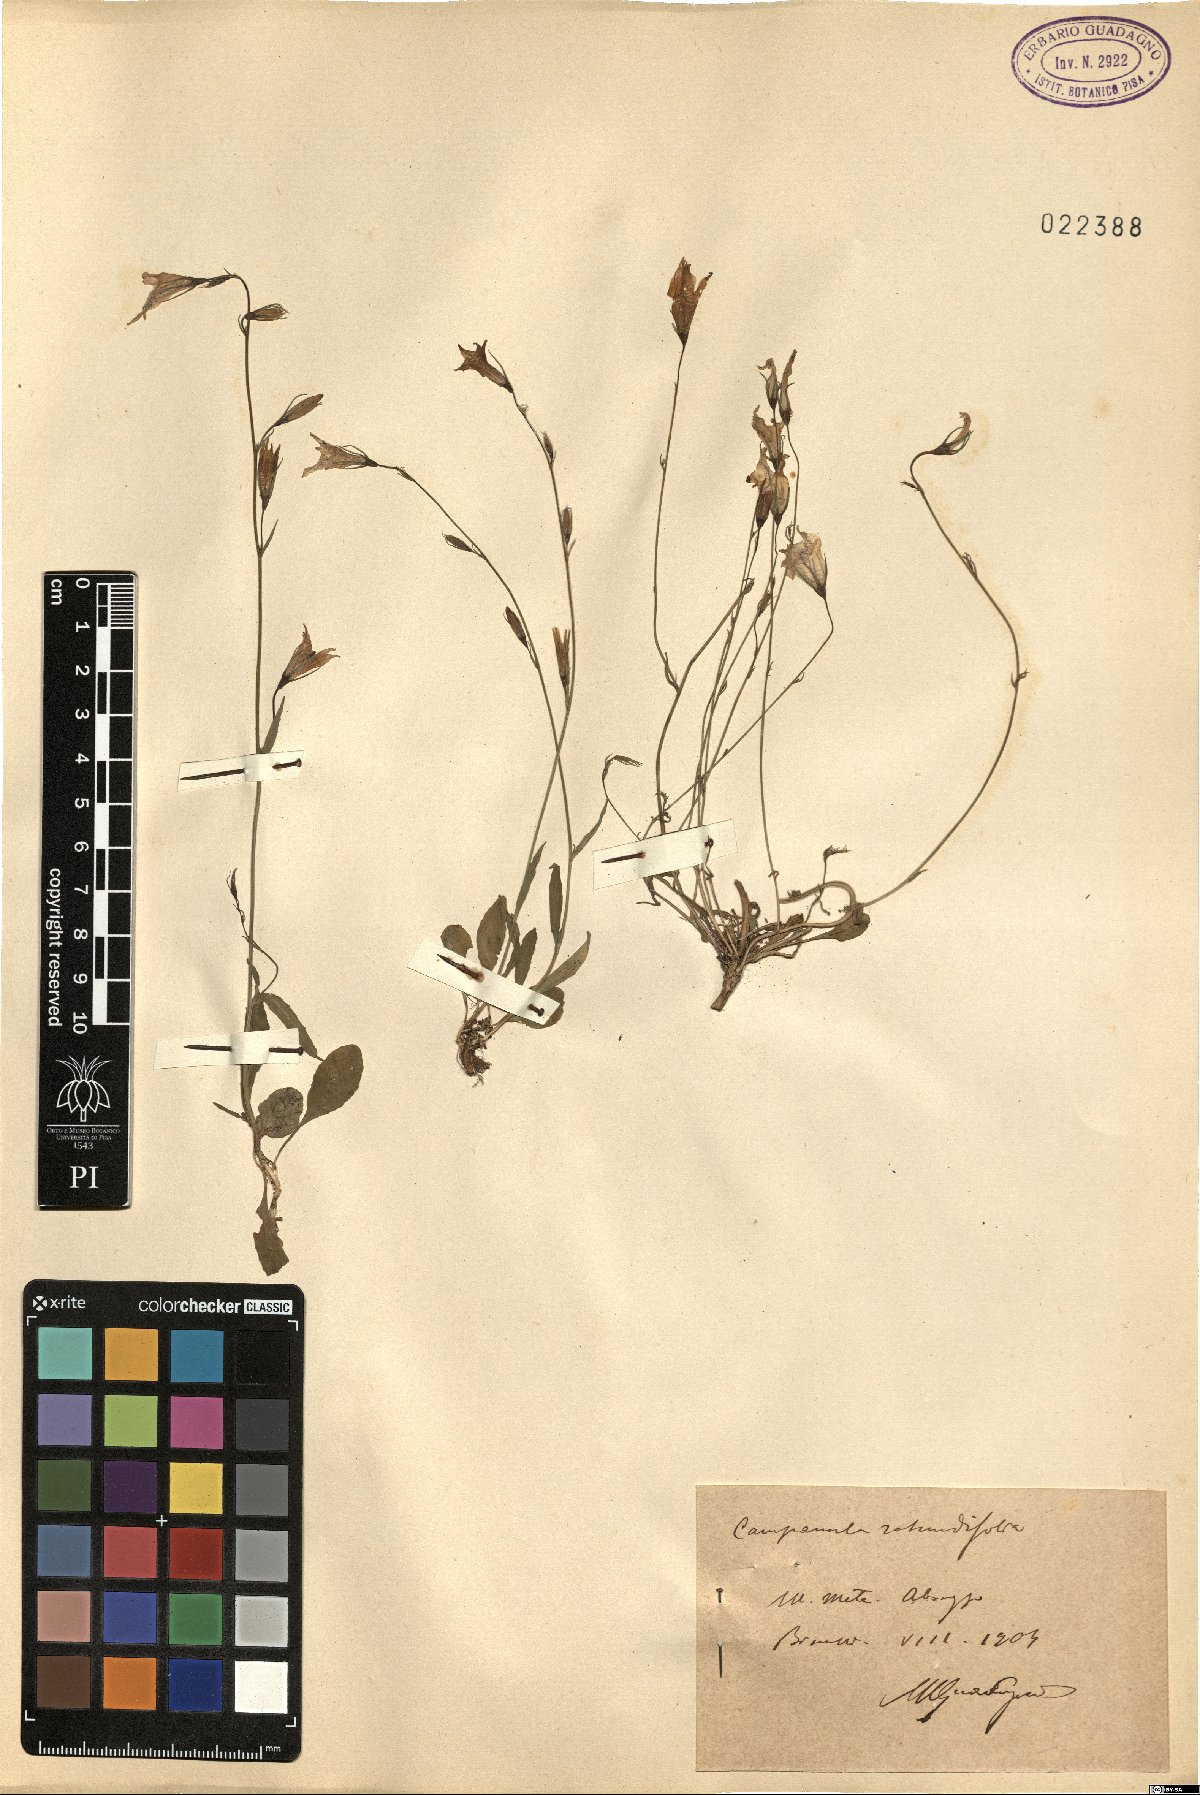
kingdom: Plantae
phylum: Tracheophyta
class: Magnoliopsida
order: Asterales
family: Campanulaceae
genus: Campanula
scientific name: Campanula rotundifolia
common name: Harebell
